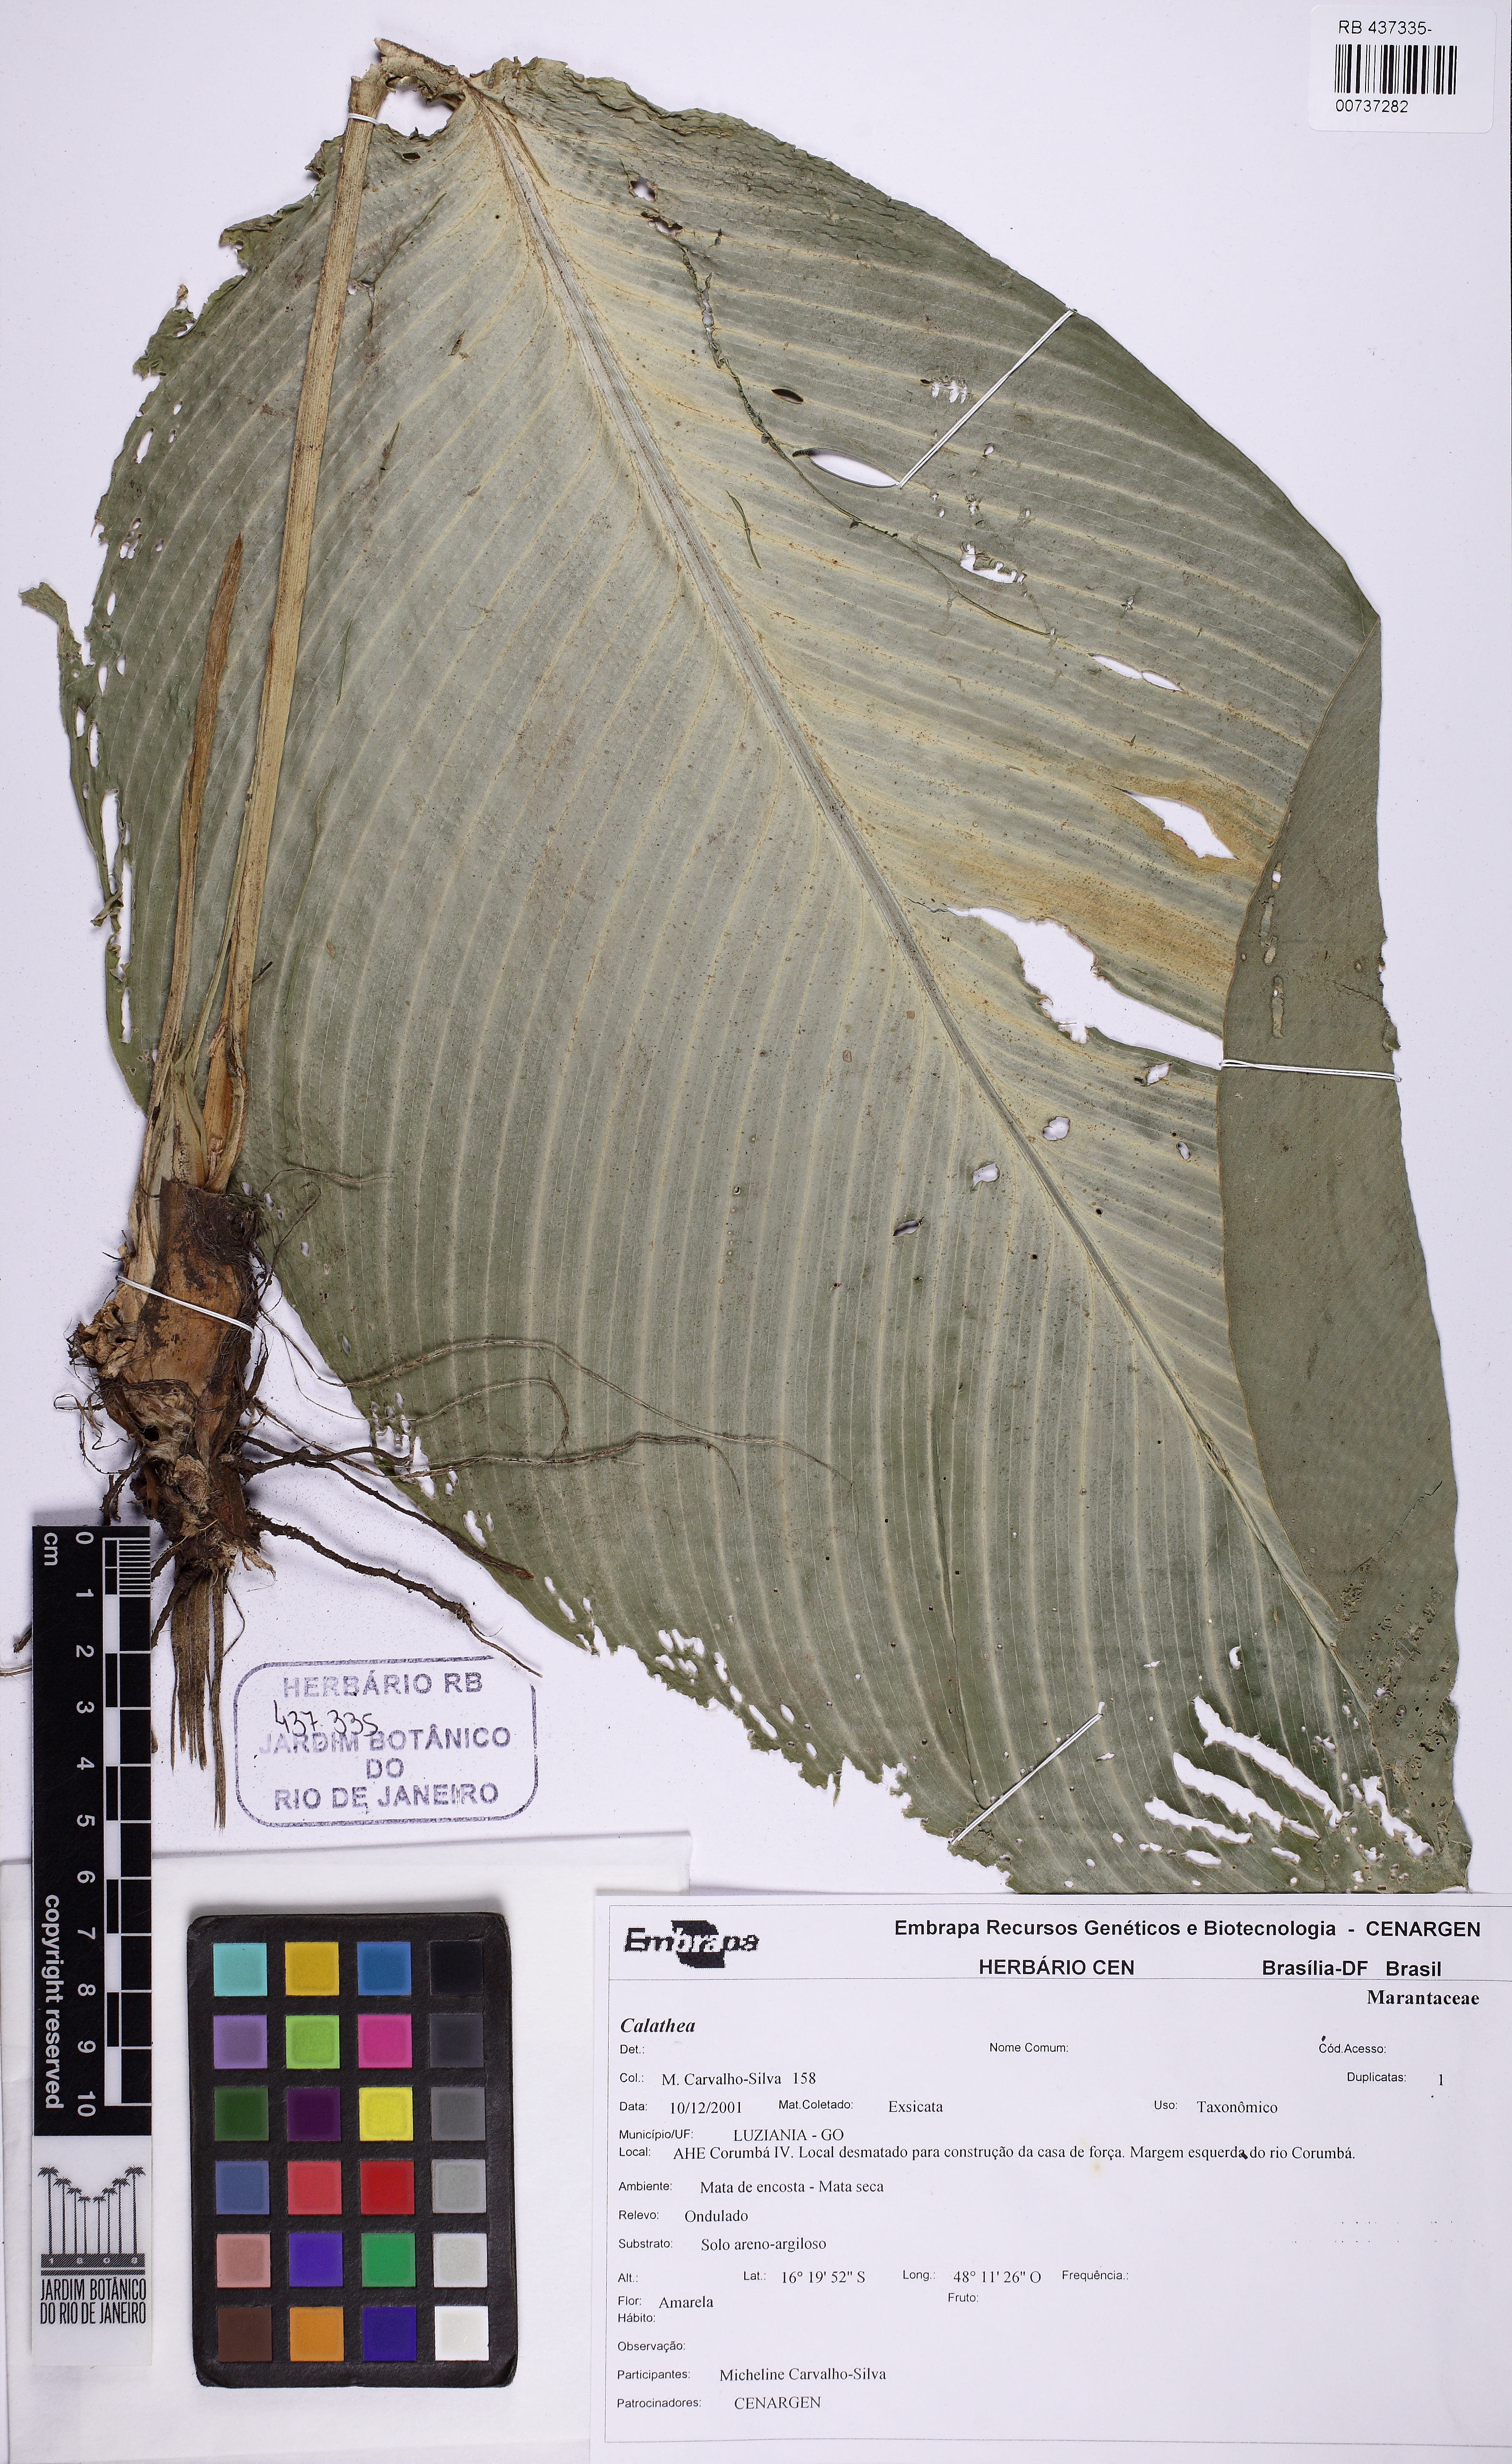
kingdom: Plantae
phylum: Tracheophyta
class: Liliopsida
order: Zingiberales
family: Marantaceae
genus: Calathea
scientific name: Calathea
